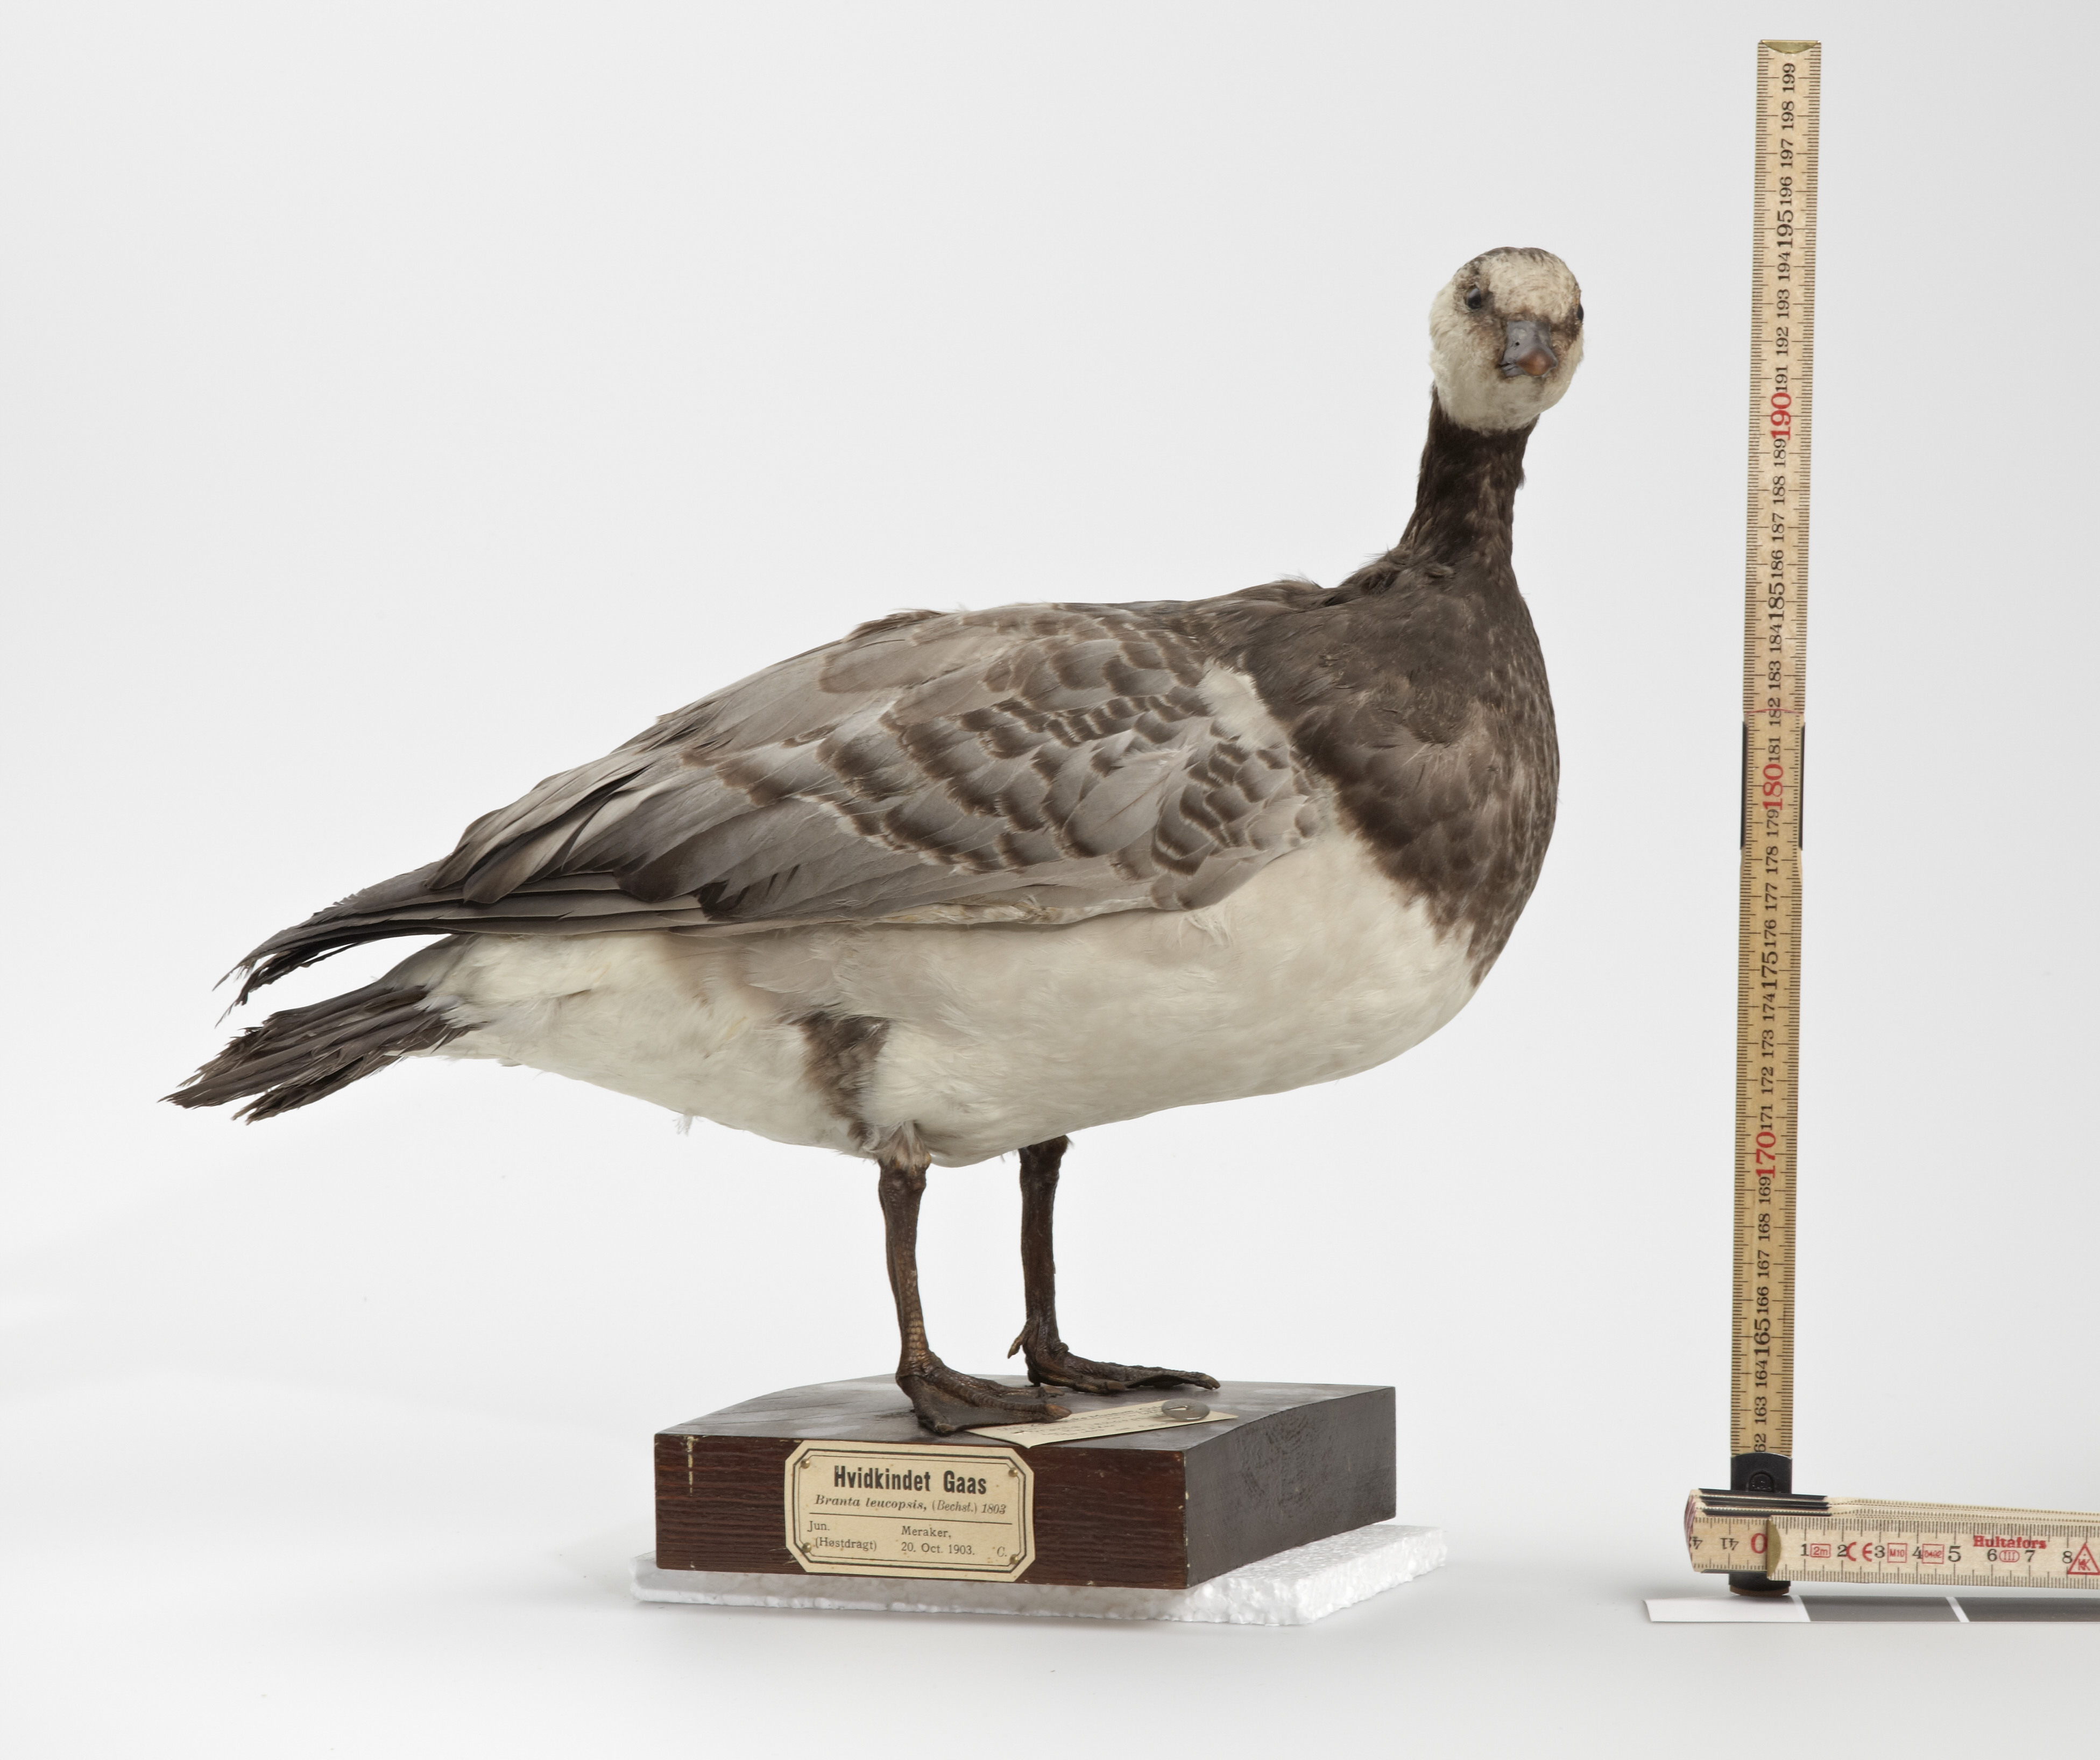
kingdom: Animalia
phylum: Chordata
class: Aves
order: Anseriformes
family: Anatidae
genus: Branta
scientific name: Branta leucopsis
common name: Barnacle goose
